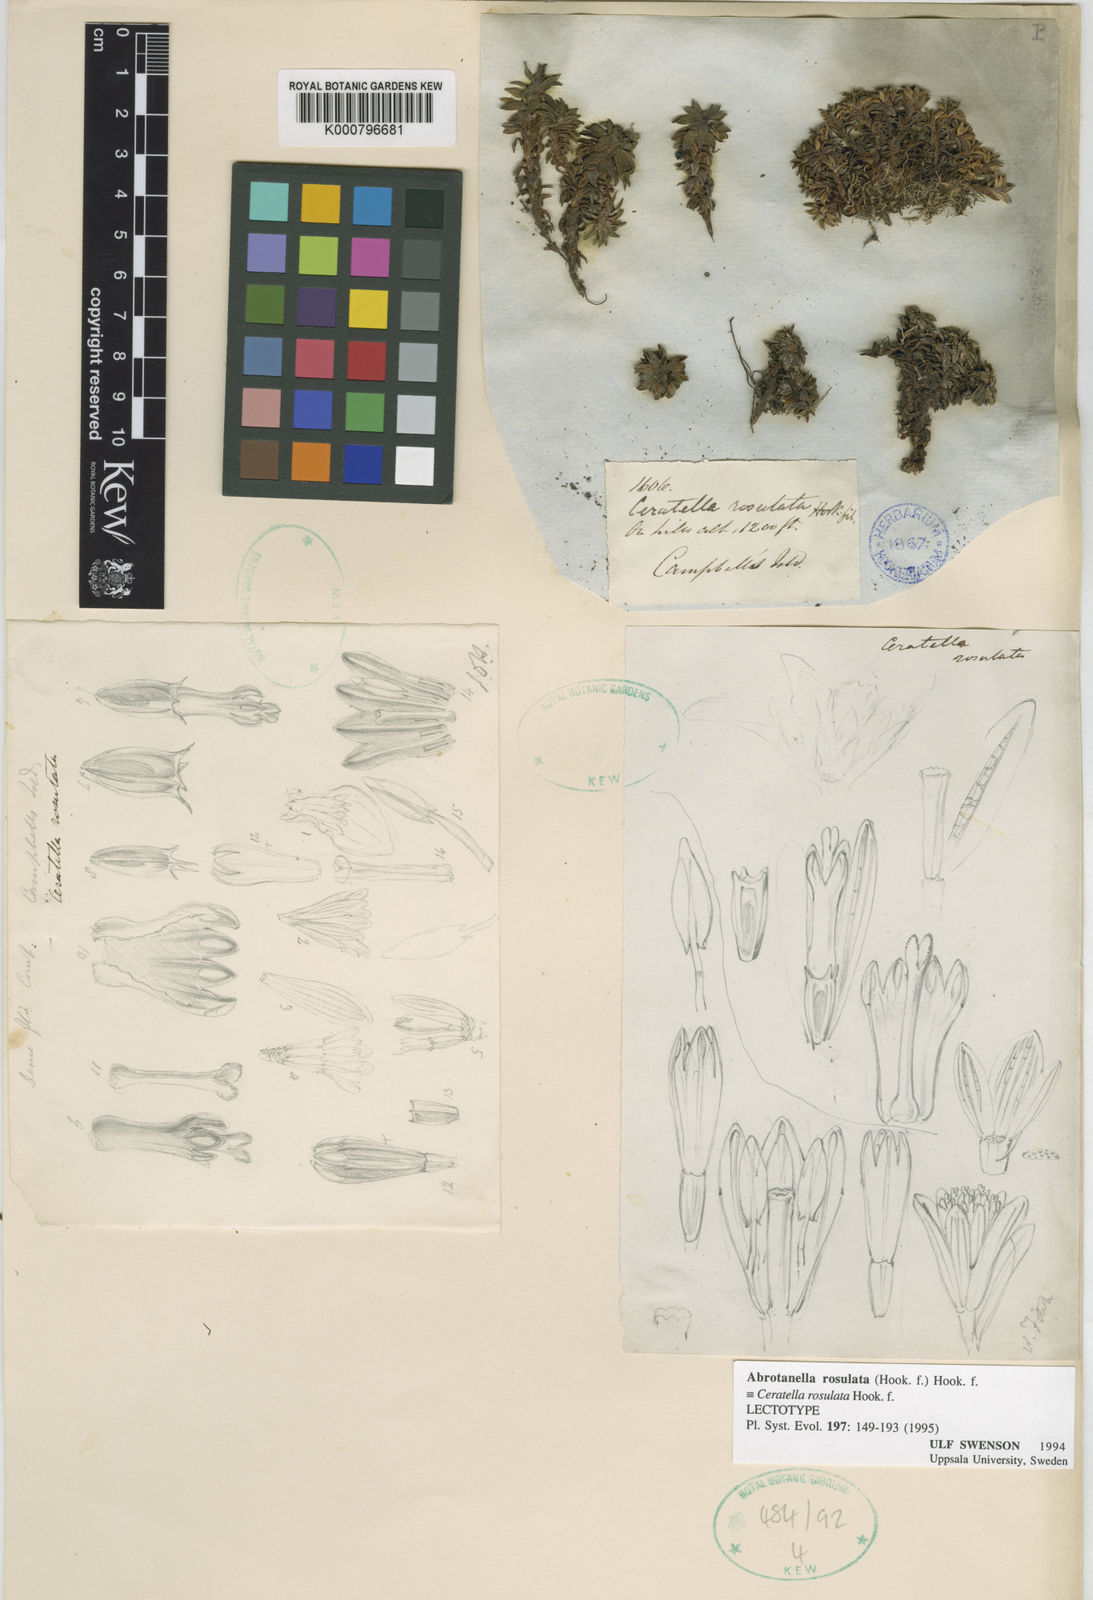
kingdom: Plantae
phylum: Tracheophyta
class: Magnoliopsida
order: Asterales
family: Asteraceae
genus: Abrotanella
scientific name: Abrotanella rosulata
